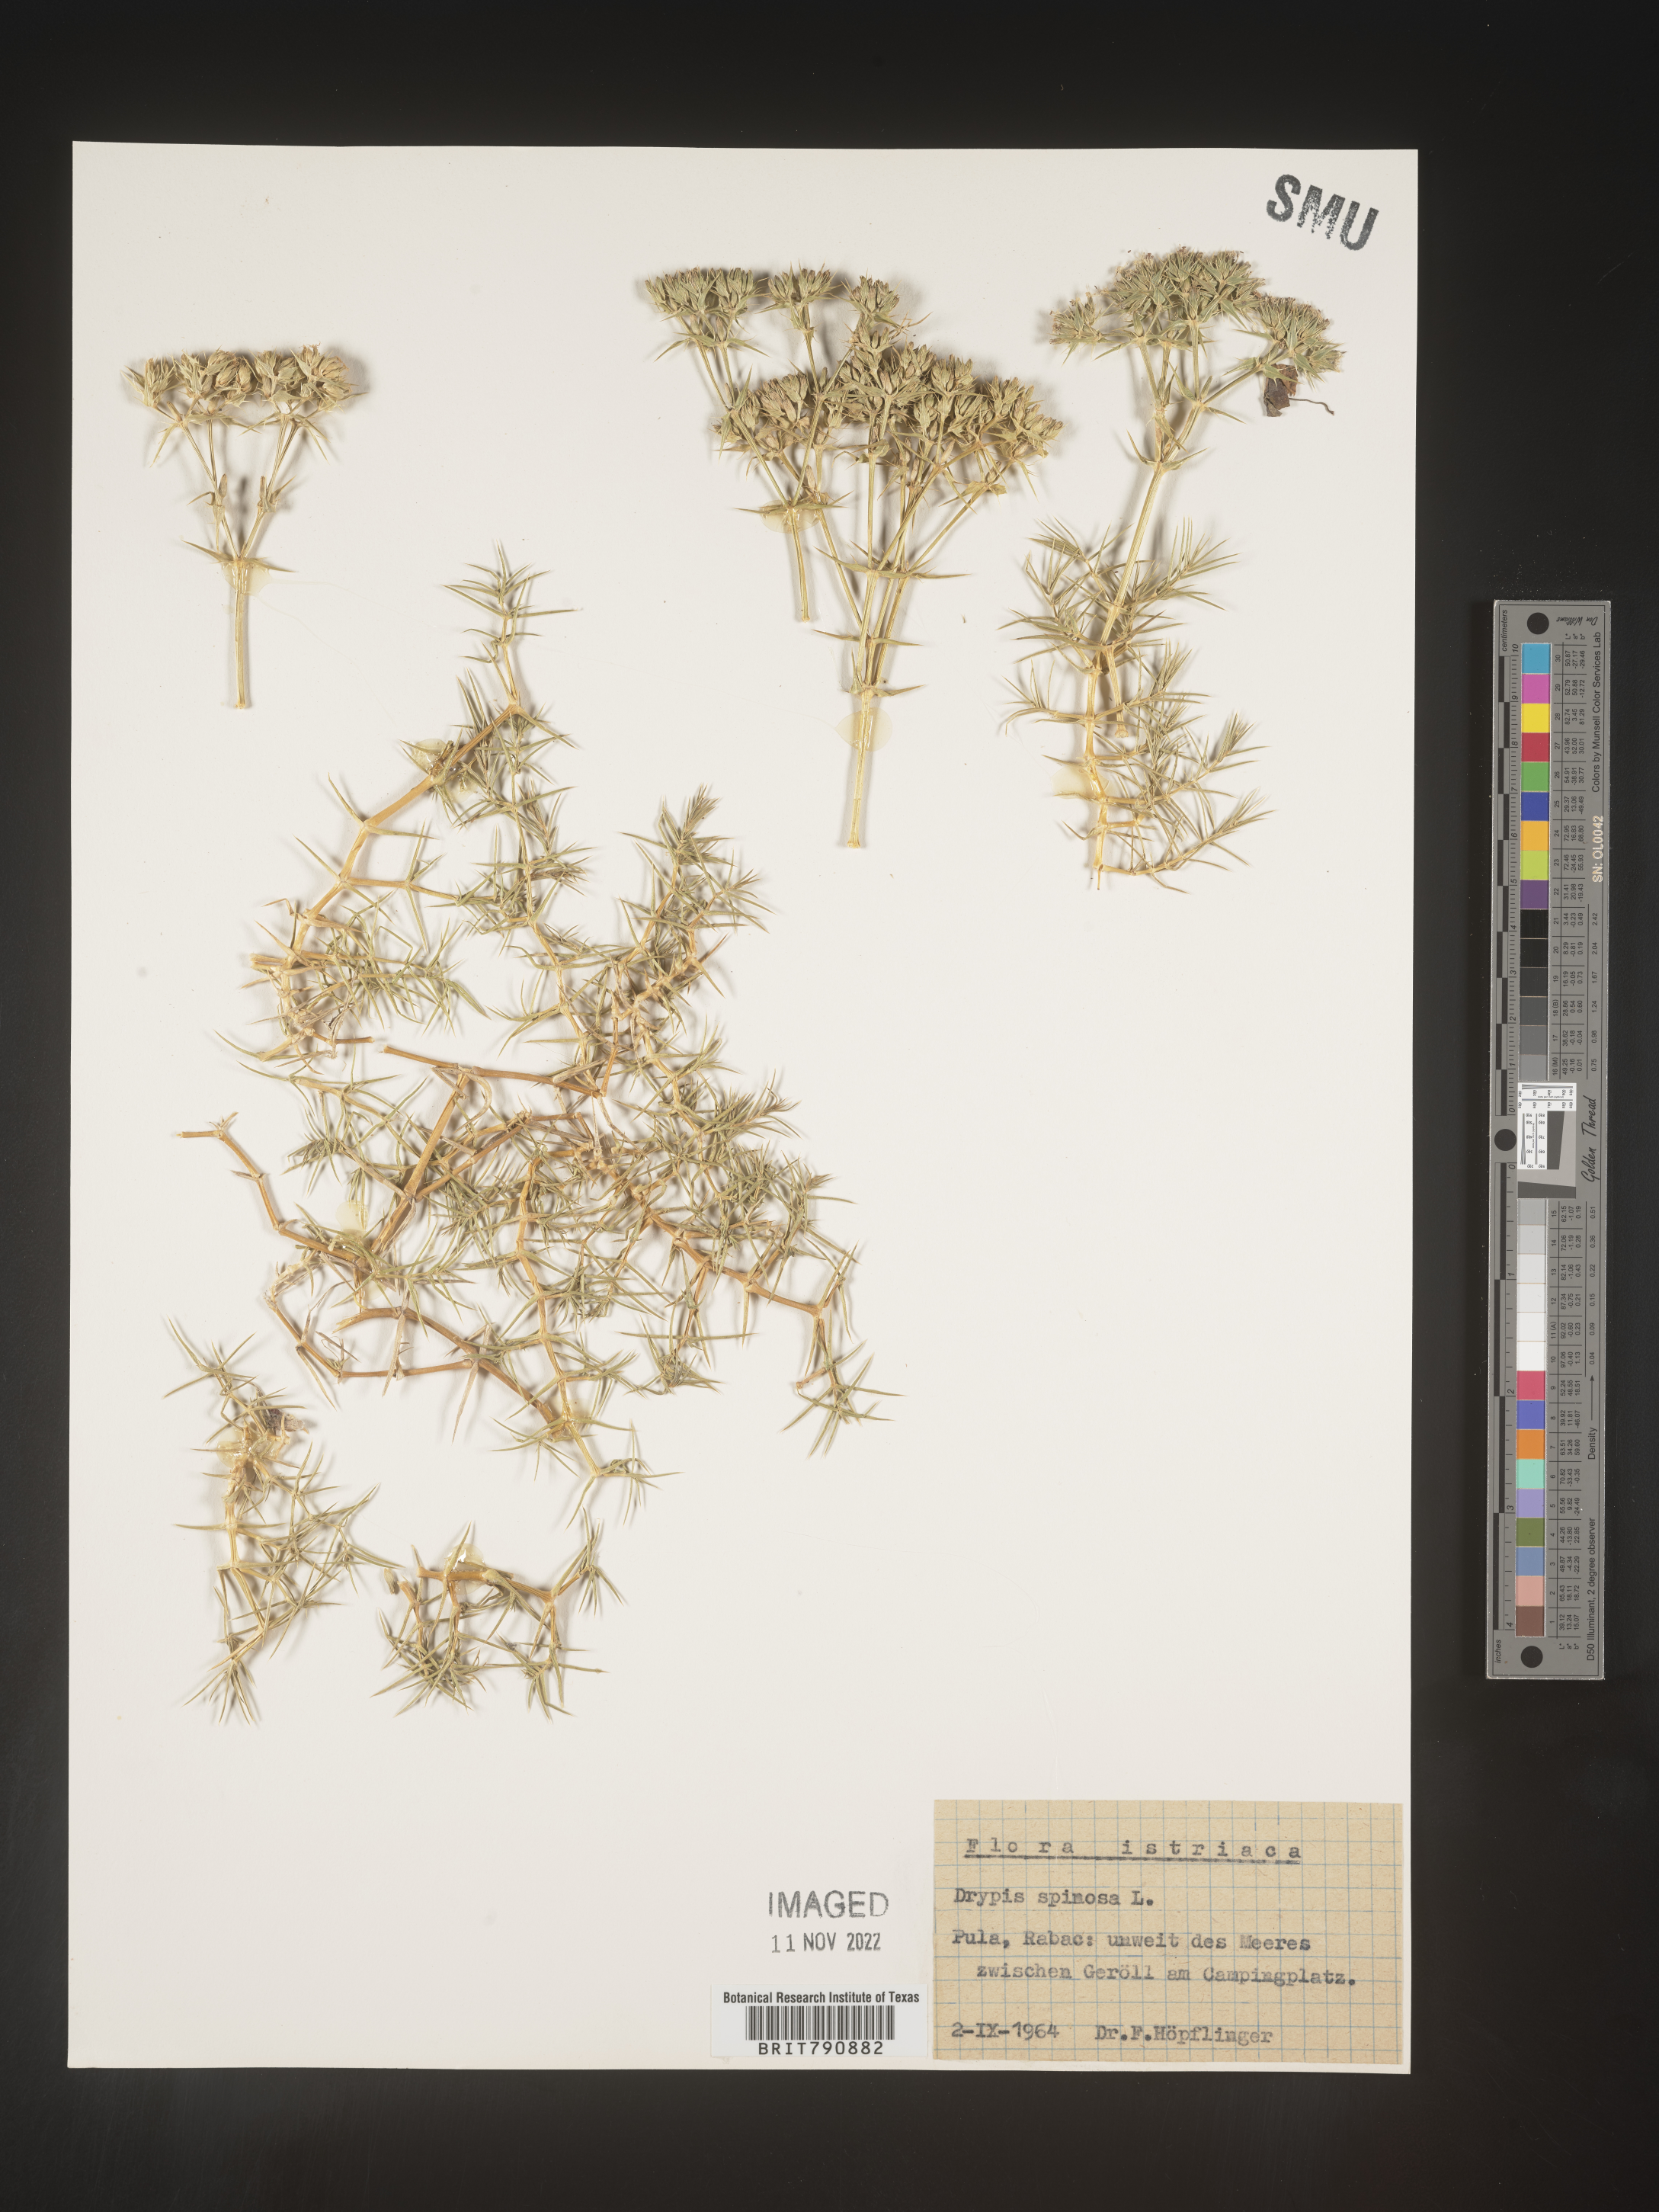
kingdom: Plantae
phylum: Tracheophyta
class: Magnoliopsida
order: Caryophyllales
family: Caryophyllaceae
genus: Drypis
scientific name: Drypis
